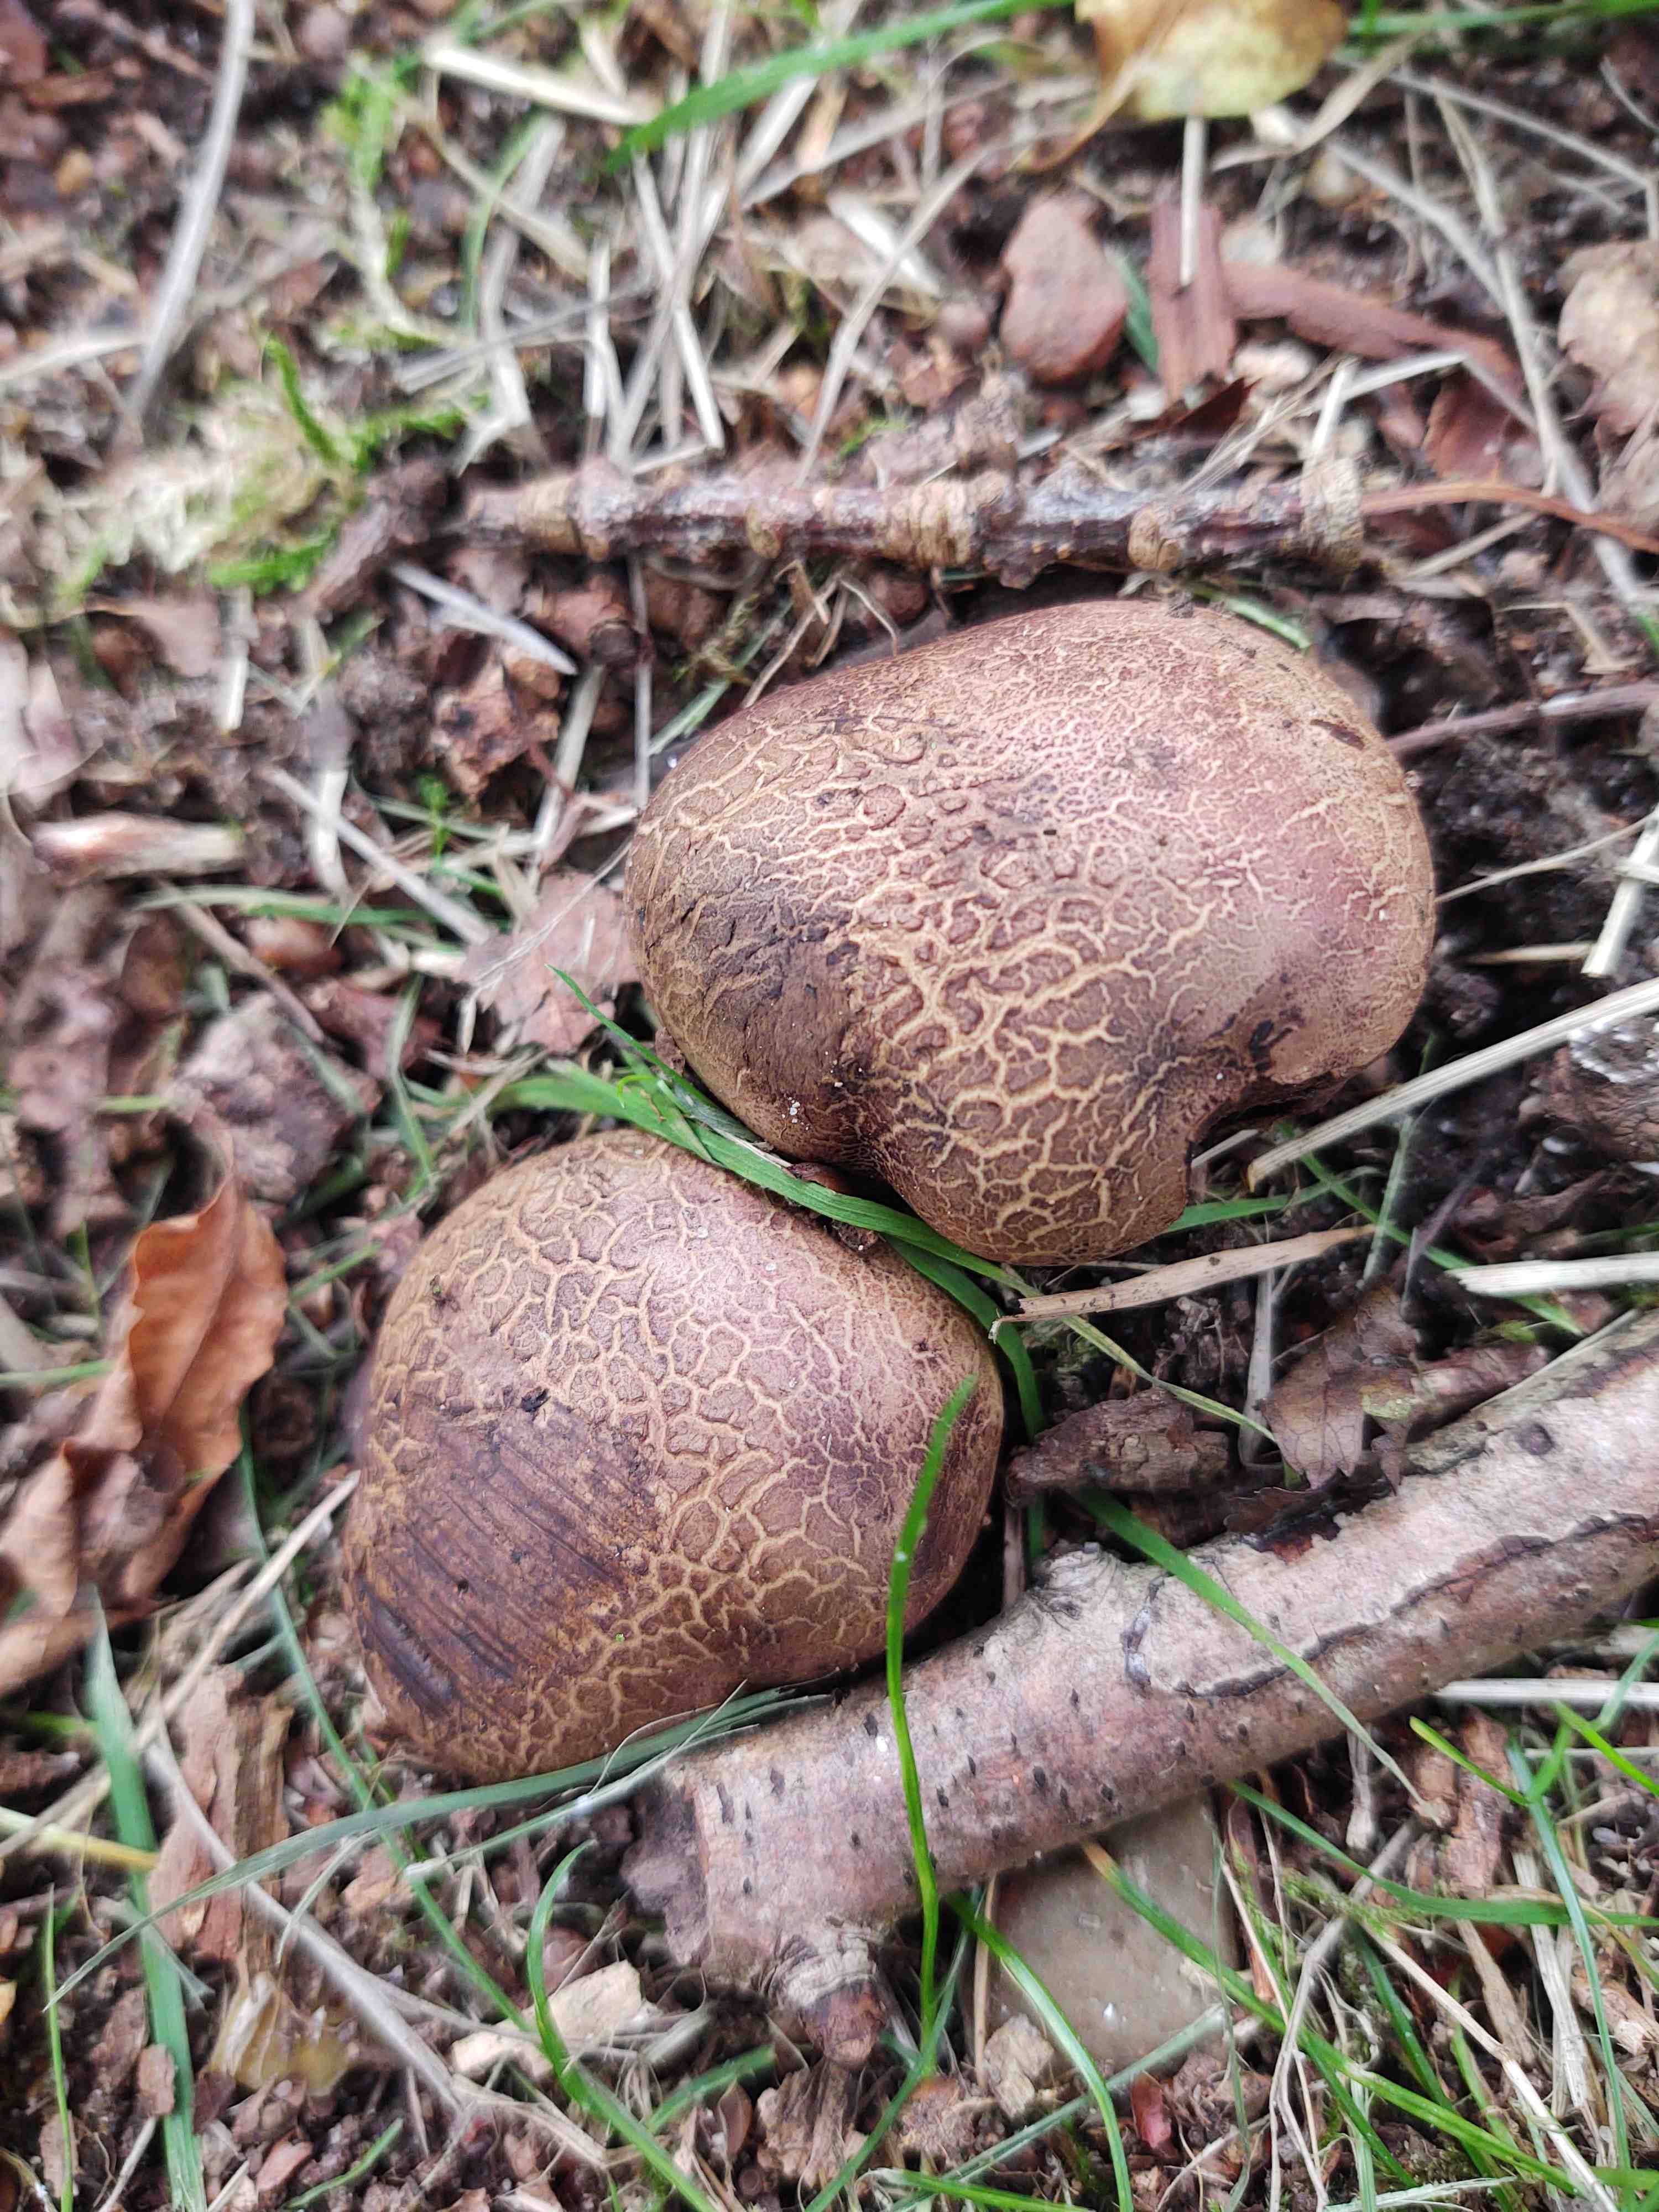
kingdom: Fungi
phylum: Basidiomycota
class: Agaricomycetes
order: Boletales
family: Sclerodermataceae
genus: Scleroderma
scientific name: Scleroderma verrucosum
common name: stilket bruskbold
